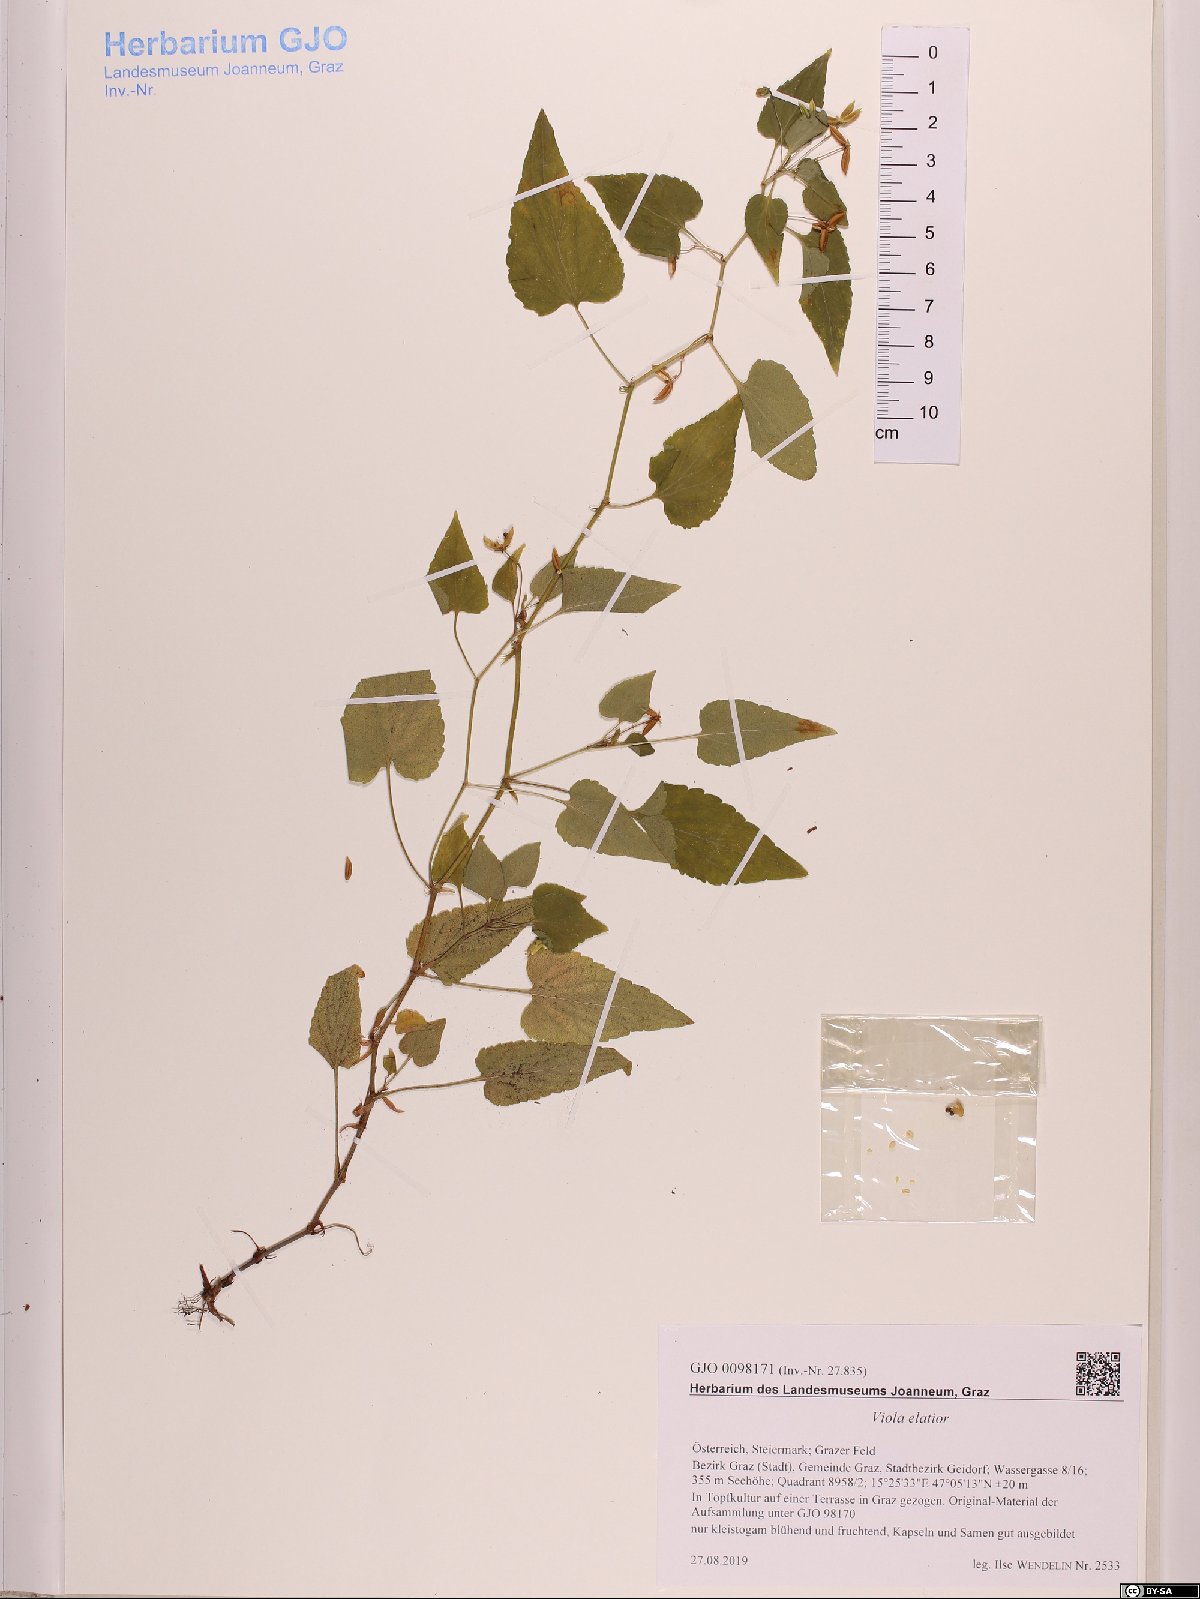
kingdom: Plantae
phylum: Tracheophyta
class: Magnoliopsida
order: Malpighiales
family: Violaceae
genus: Viola
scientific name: Viola elatior
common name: Tall violet
